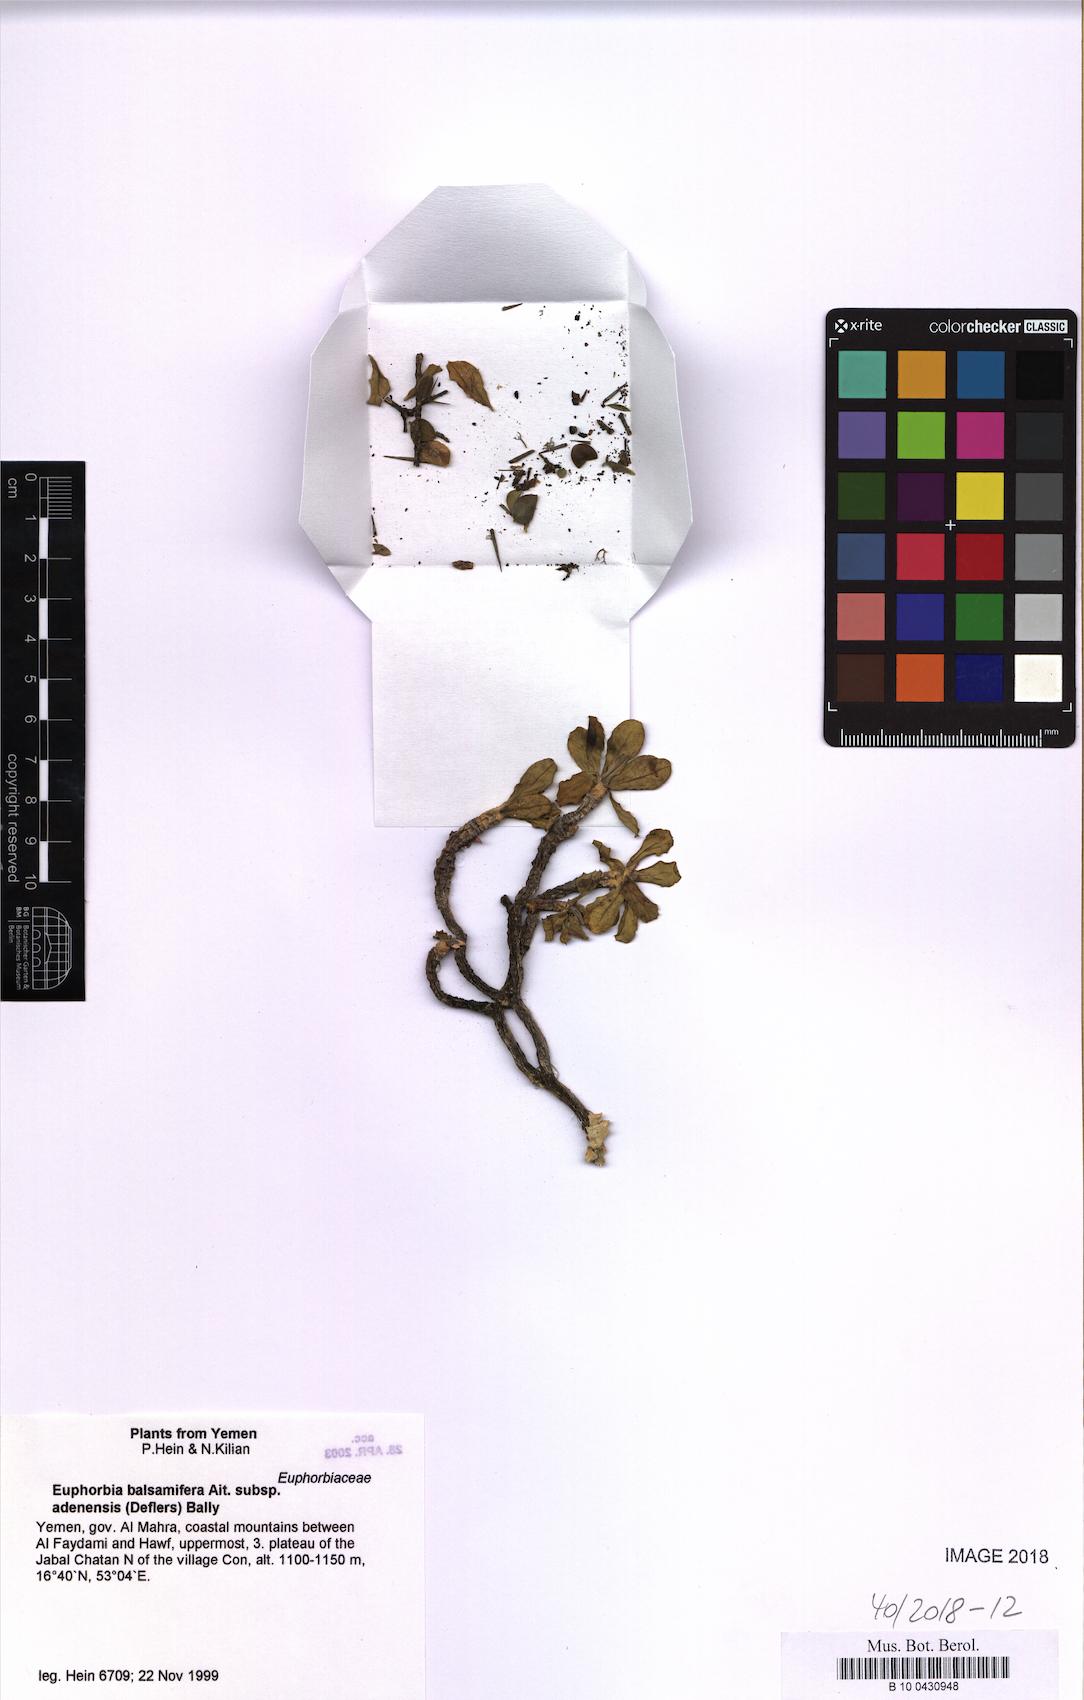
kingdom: Plantae
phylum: Tracheophyta
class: Magnoliopsida
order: Malpighiales
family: Euphorbiaceae
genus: Euphorbia
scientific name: Euphorbia adenensis
